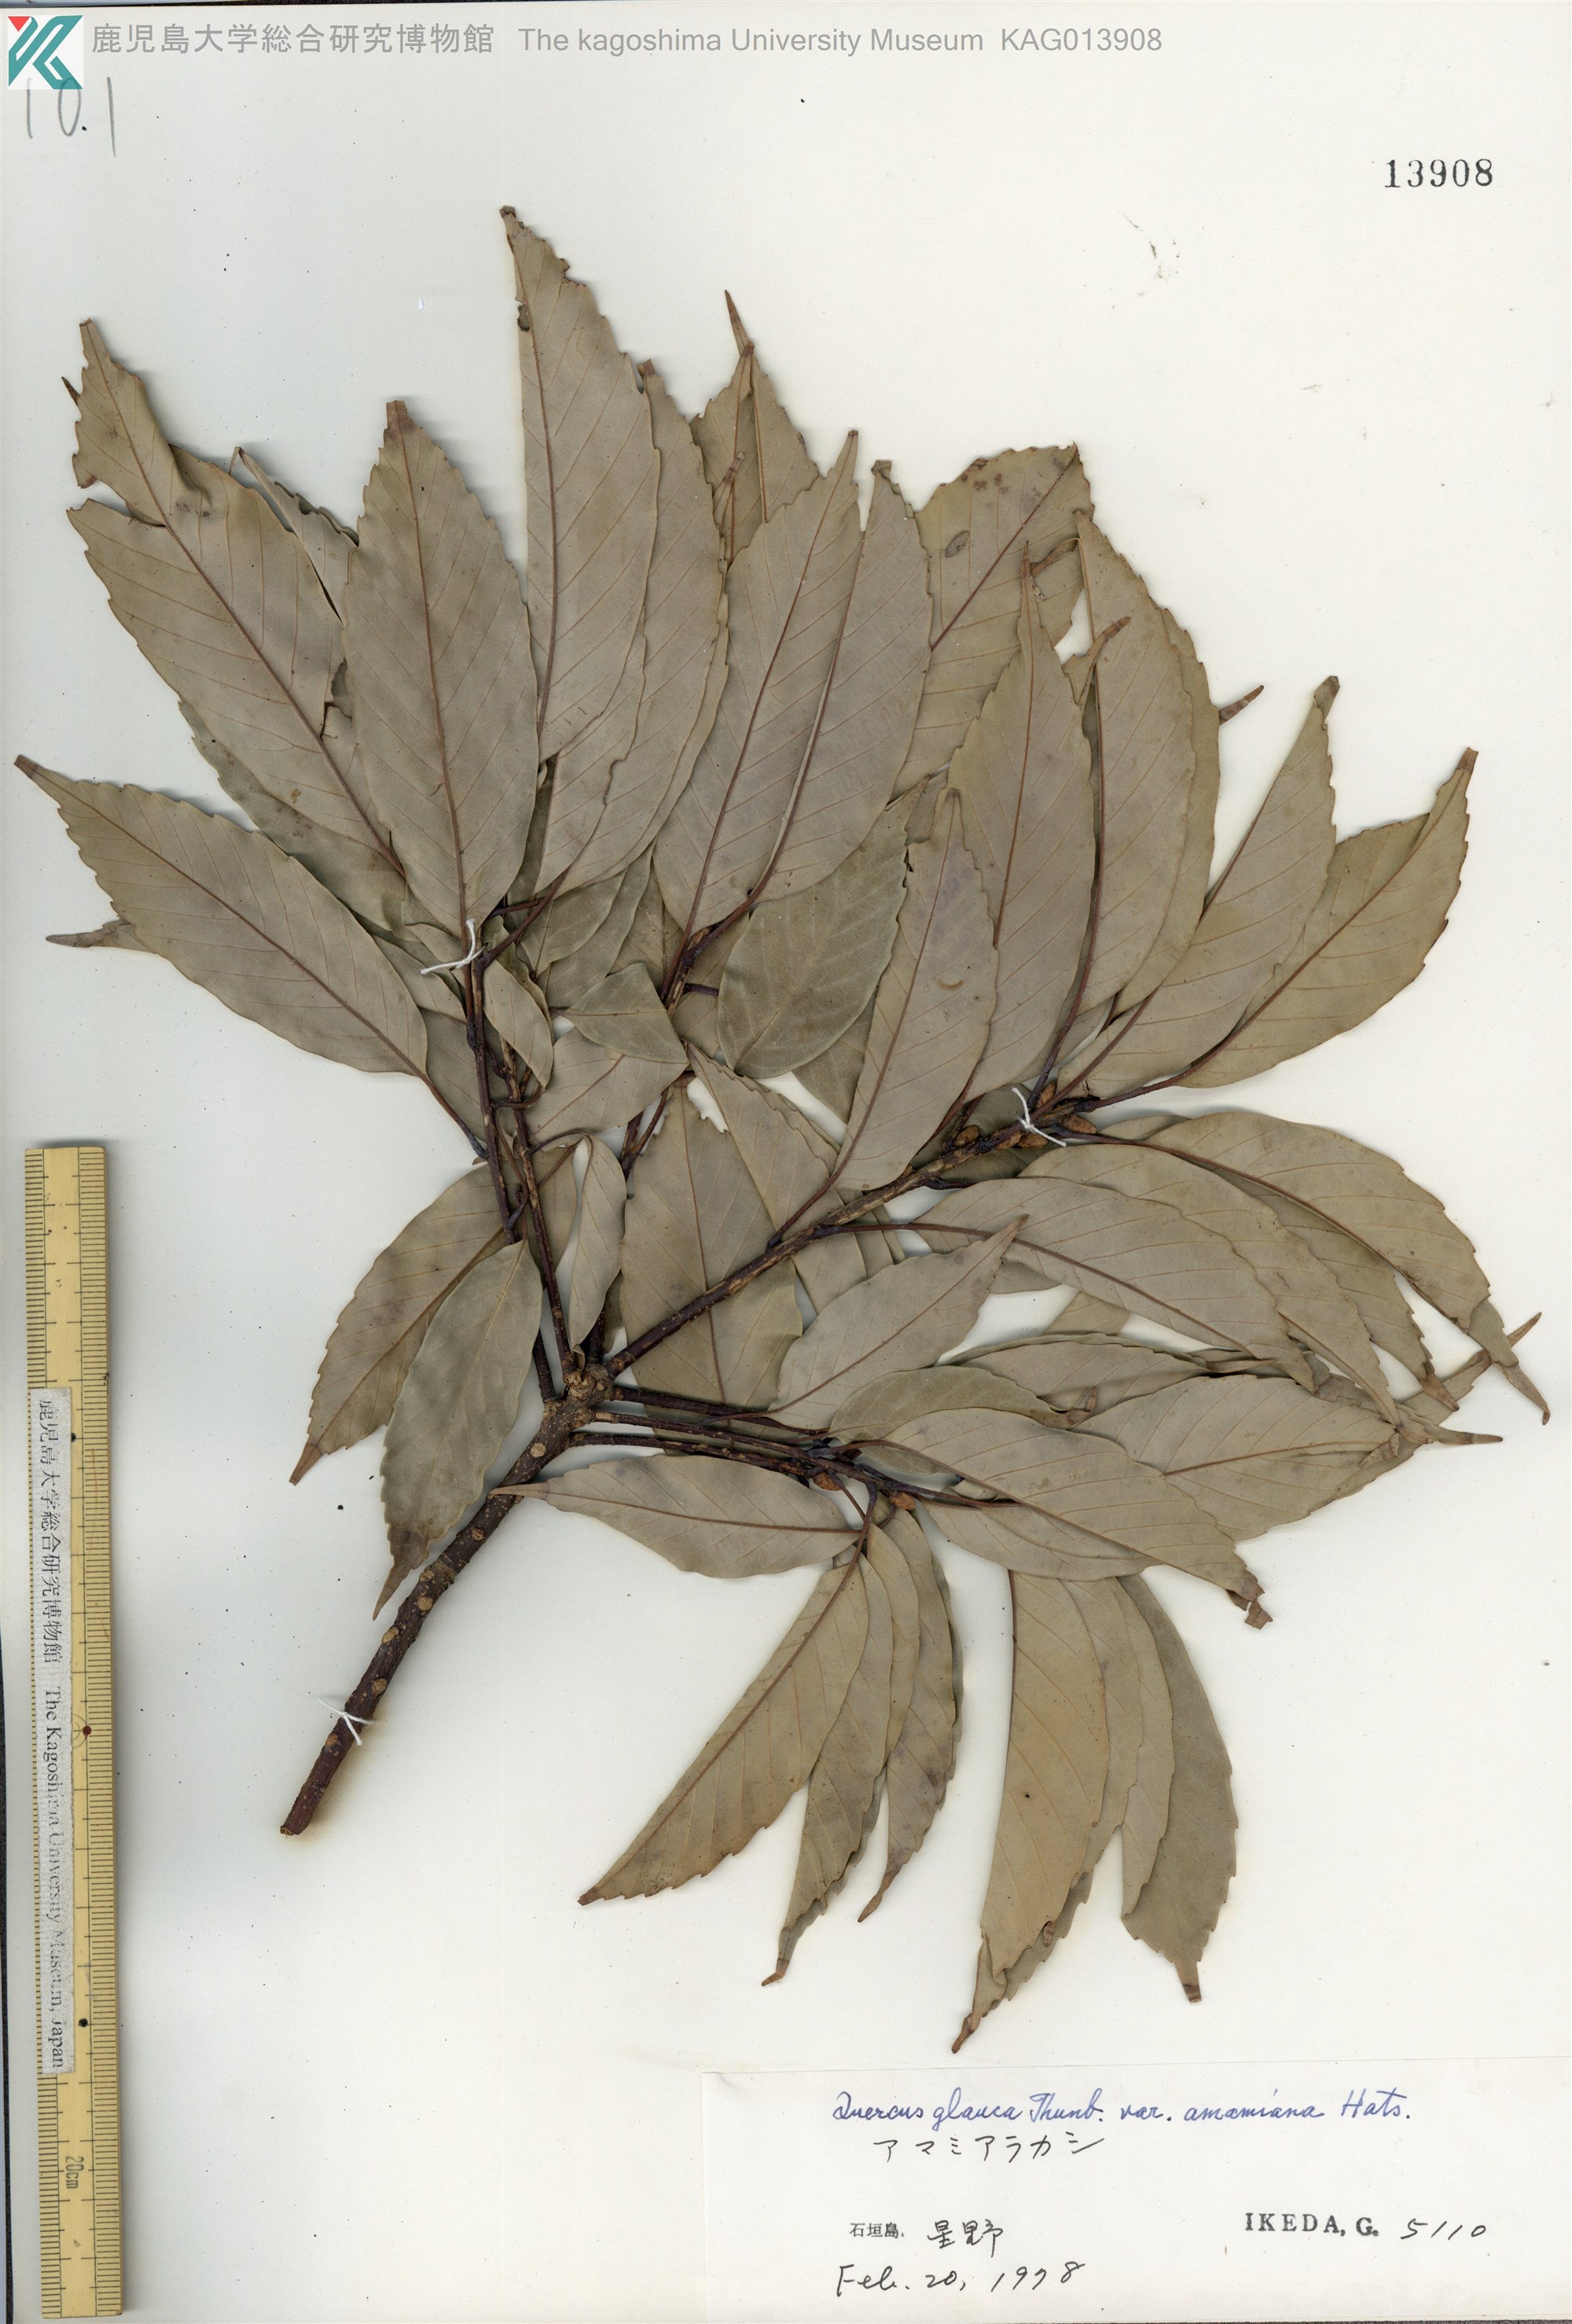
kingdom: Plantae
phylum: Tracheophyta
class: Magnoliopsida
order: Fagales
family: Fagaceae
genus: Quercus
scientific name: Quercus glauca
